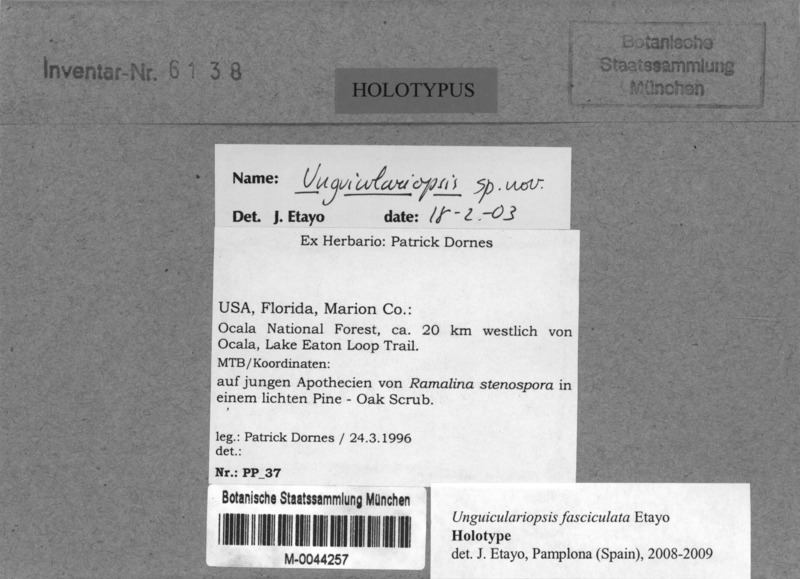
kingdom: Fungi
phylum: Ascomycota
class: Lecanoromycetes
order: Lecanorales
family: Ramalinaceae
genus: Ramalina
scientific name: Ramalina stenospora
